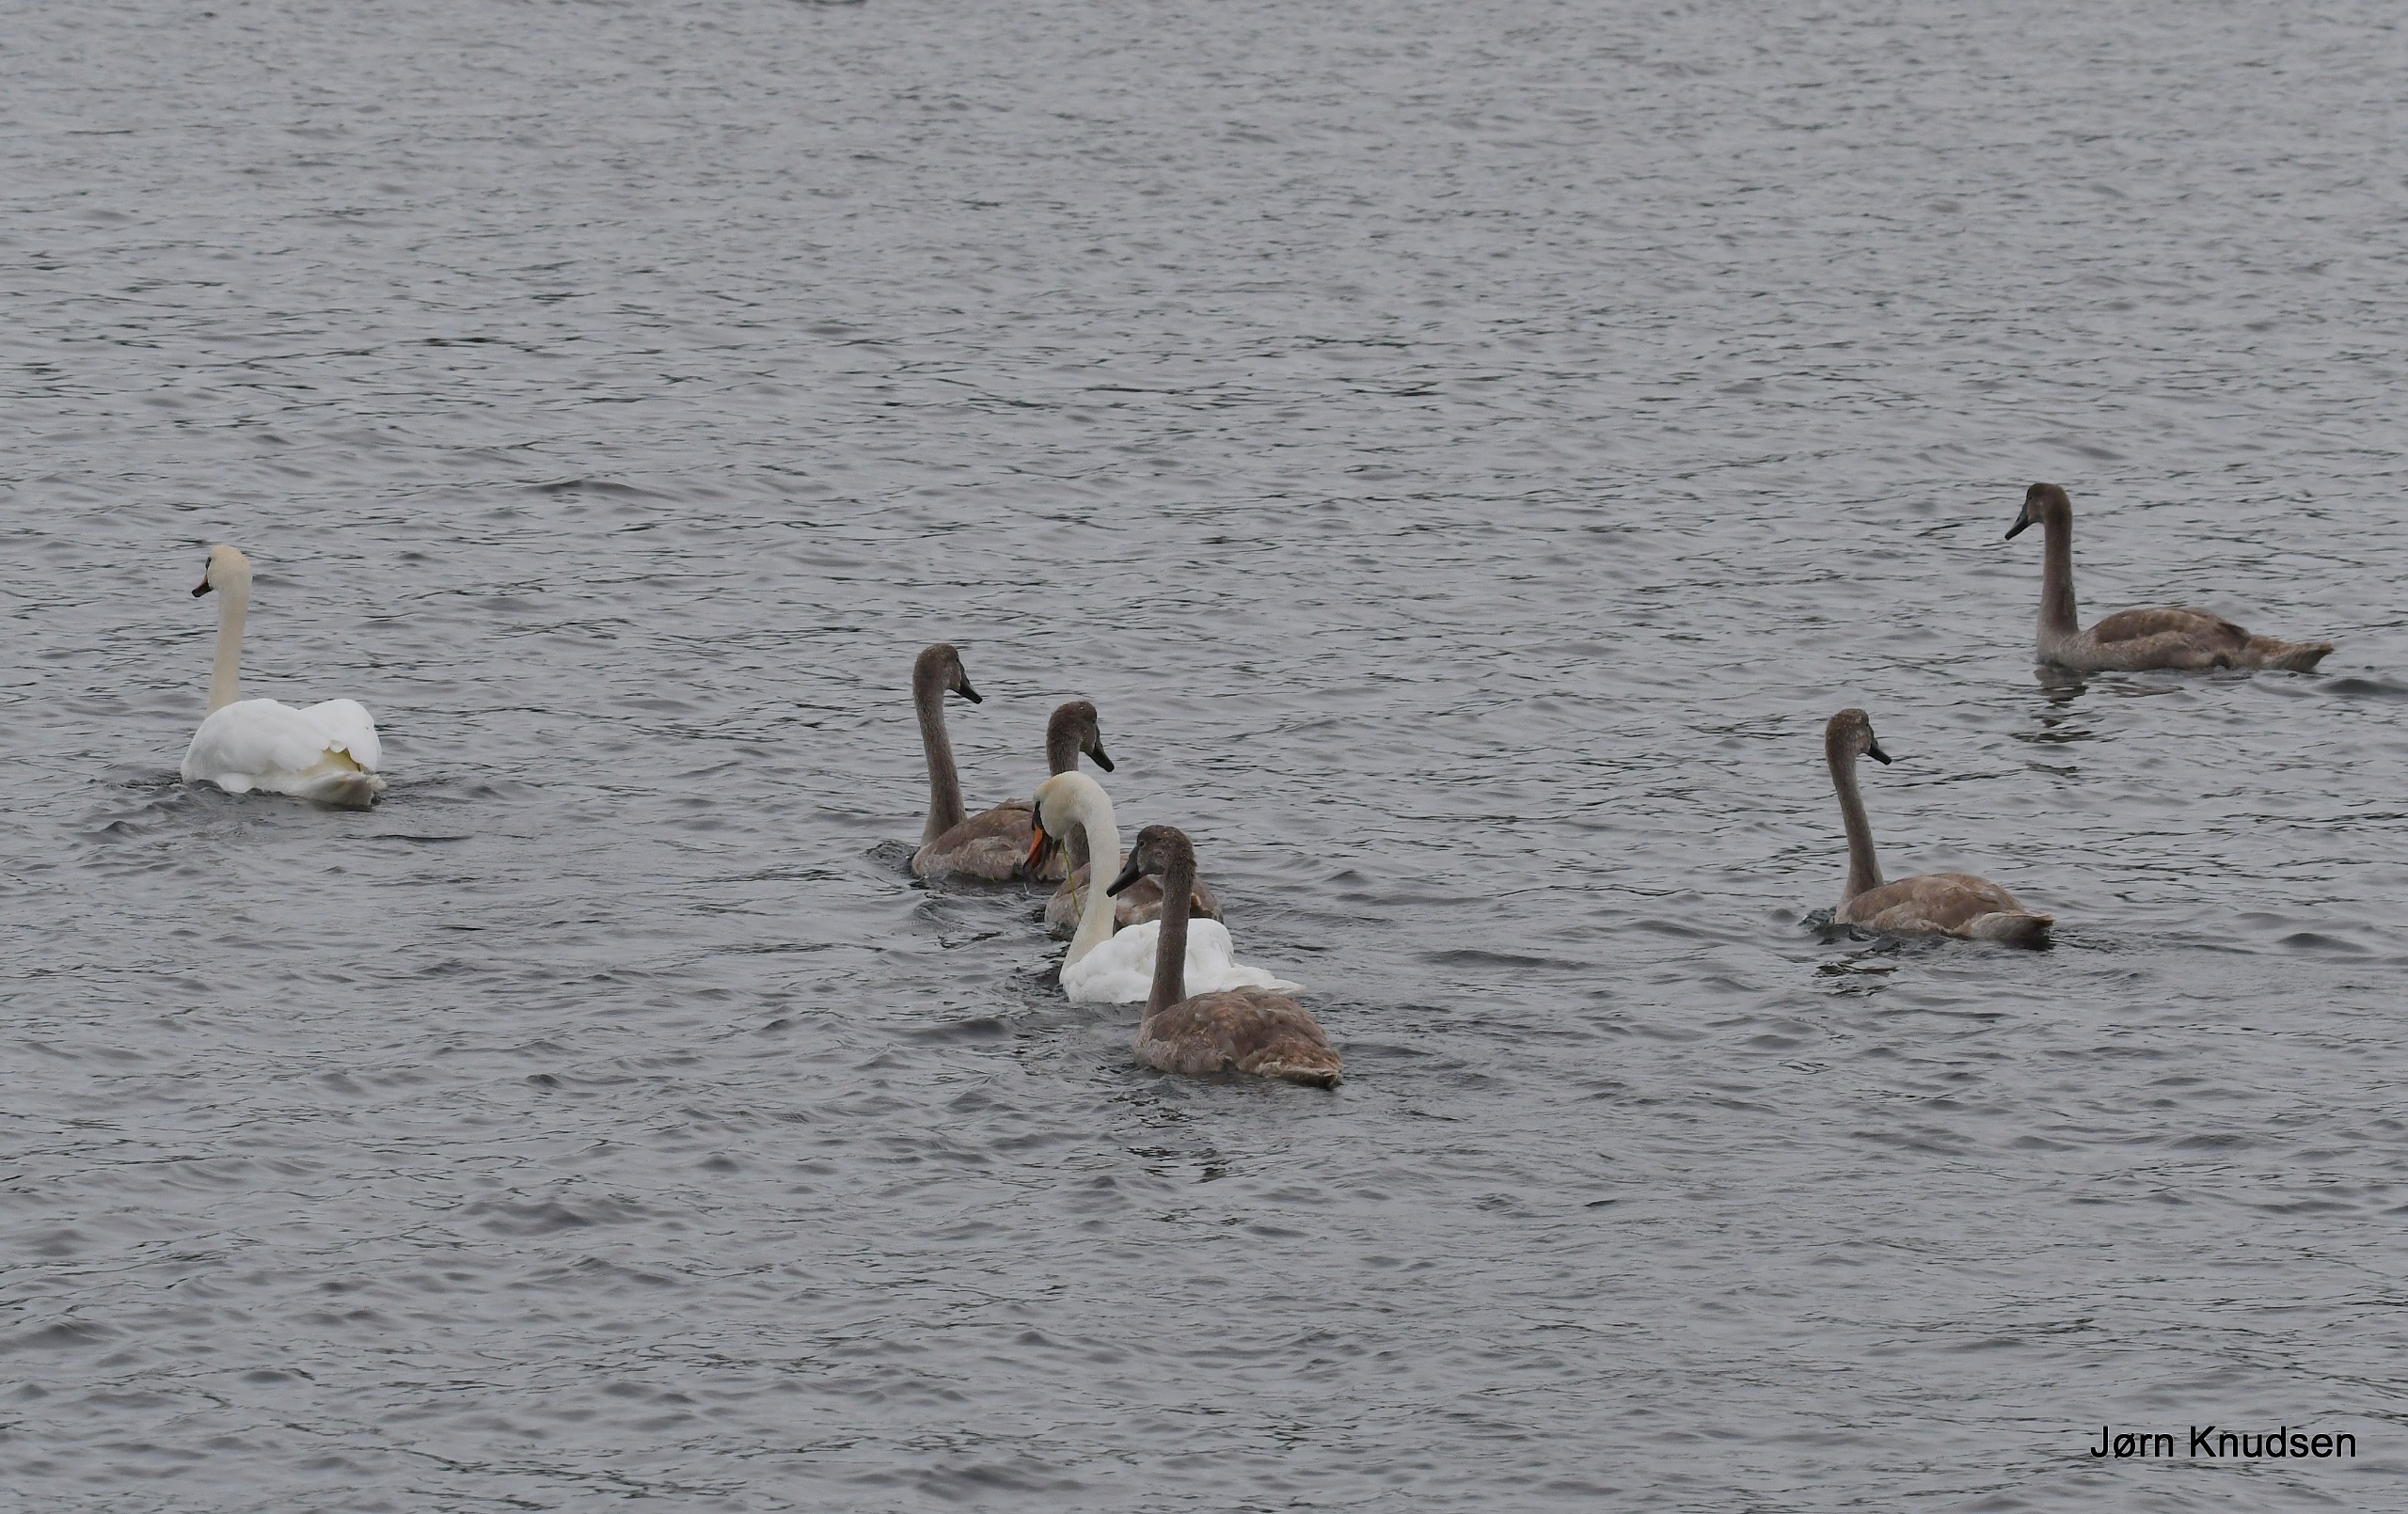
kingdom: Animalia
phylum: Chordata
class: Aves
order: Anseriformes
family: Anatidae
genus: Cygnus
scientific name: Cygnus olor
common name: Knopsvane
